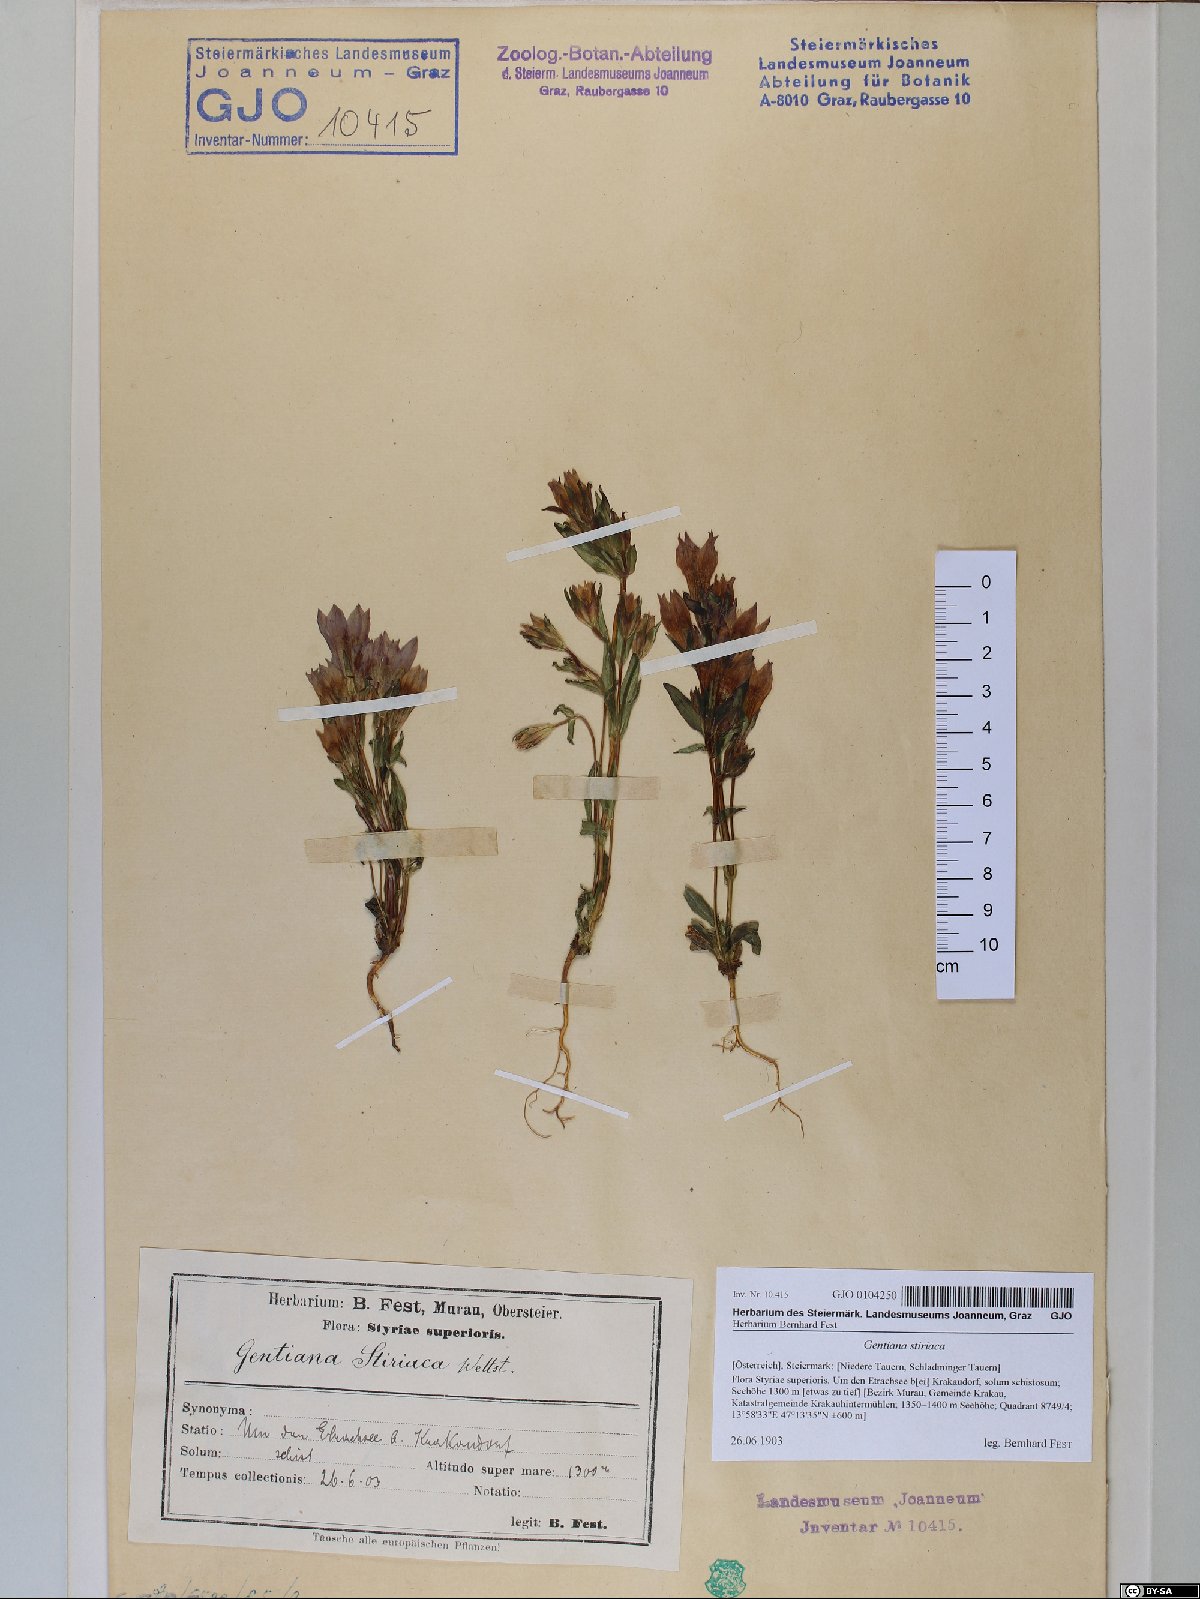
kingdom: Plantae
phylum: Tracheophyta
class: Magnoliopsida
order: Gentianales
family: Gentianaceae
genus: Gentianella
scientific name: Gentianella rhaetica
